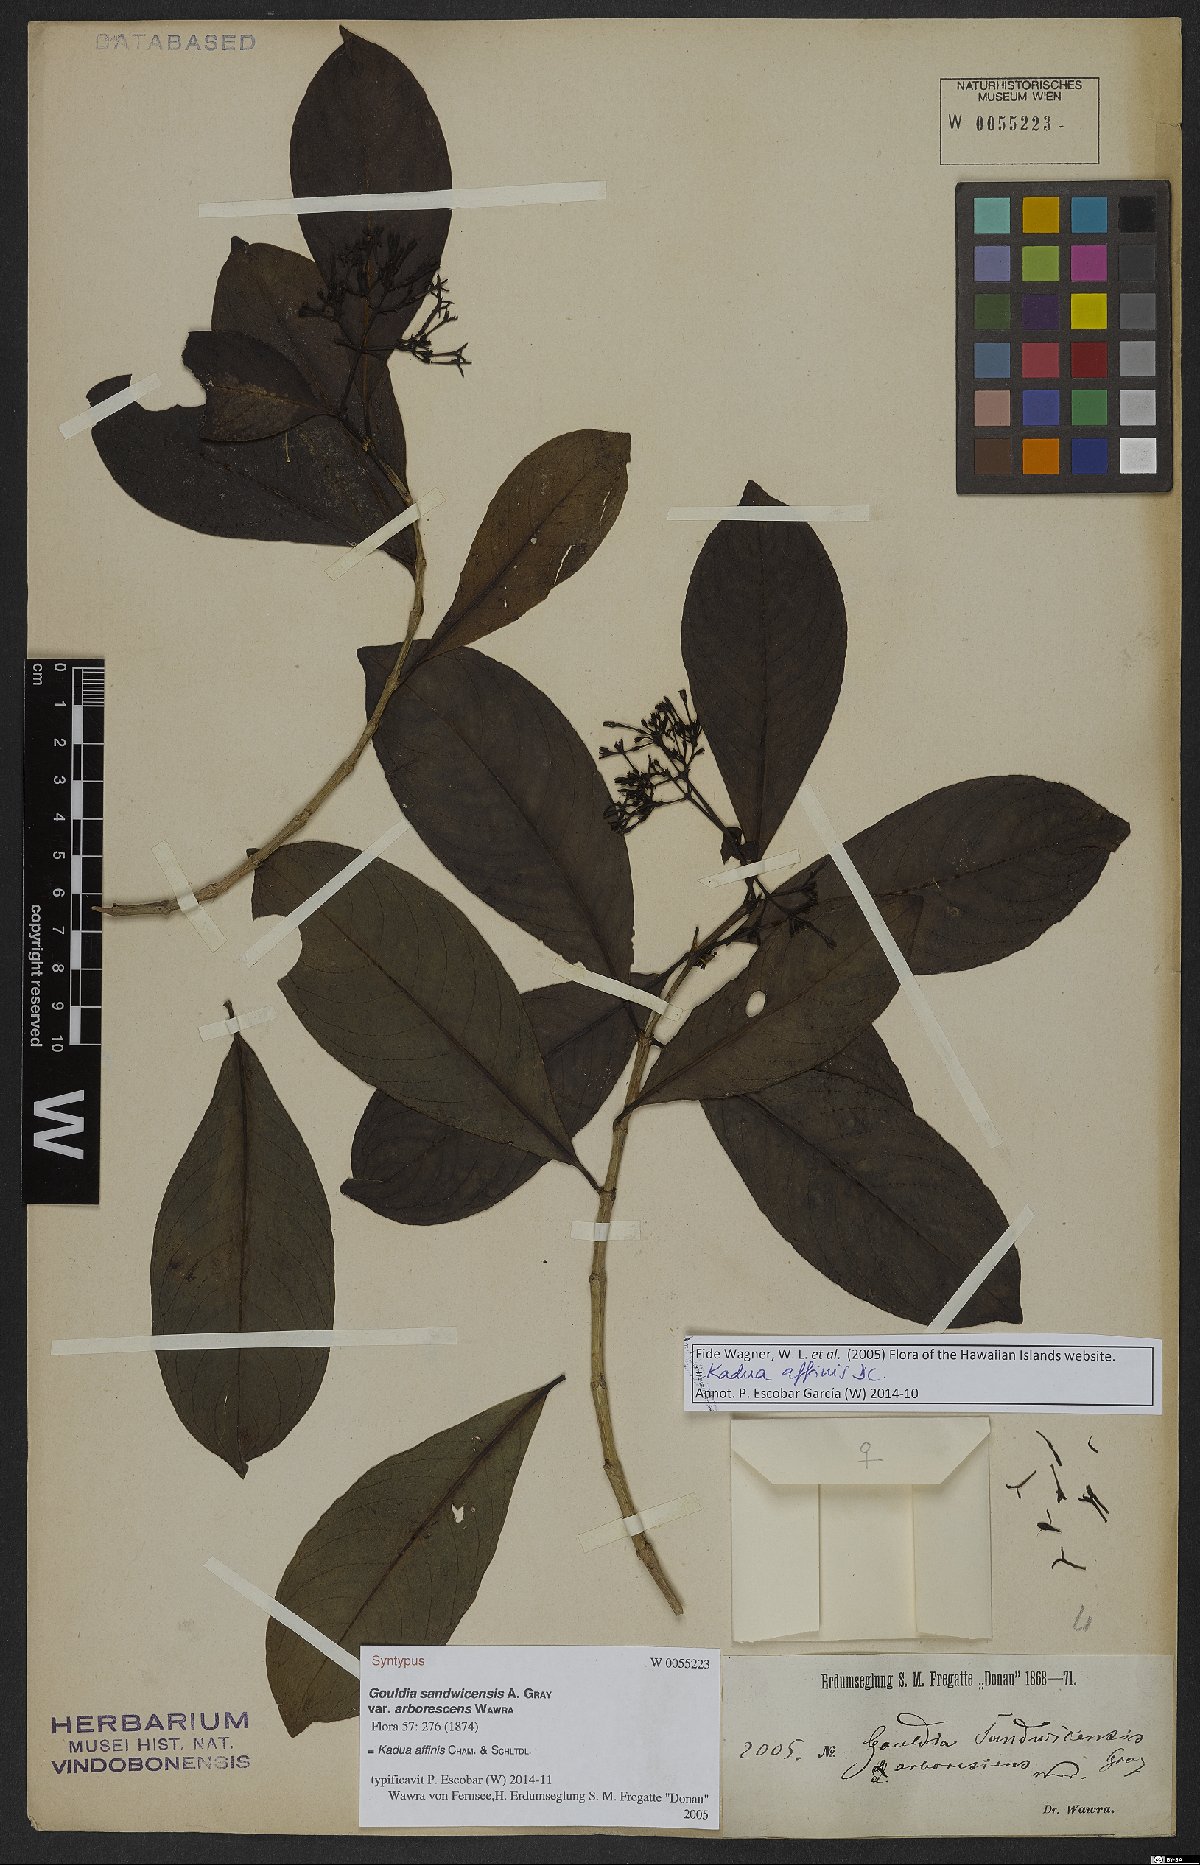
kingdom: Plantae
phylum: Tracheophyta
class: Magnoliopsida
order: Gentianales
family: Rubiaceae
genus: Kadua
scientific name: Kadua affinis
